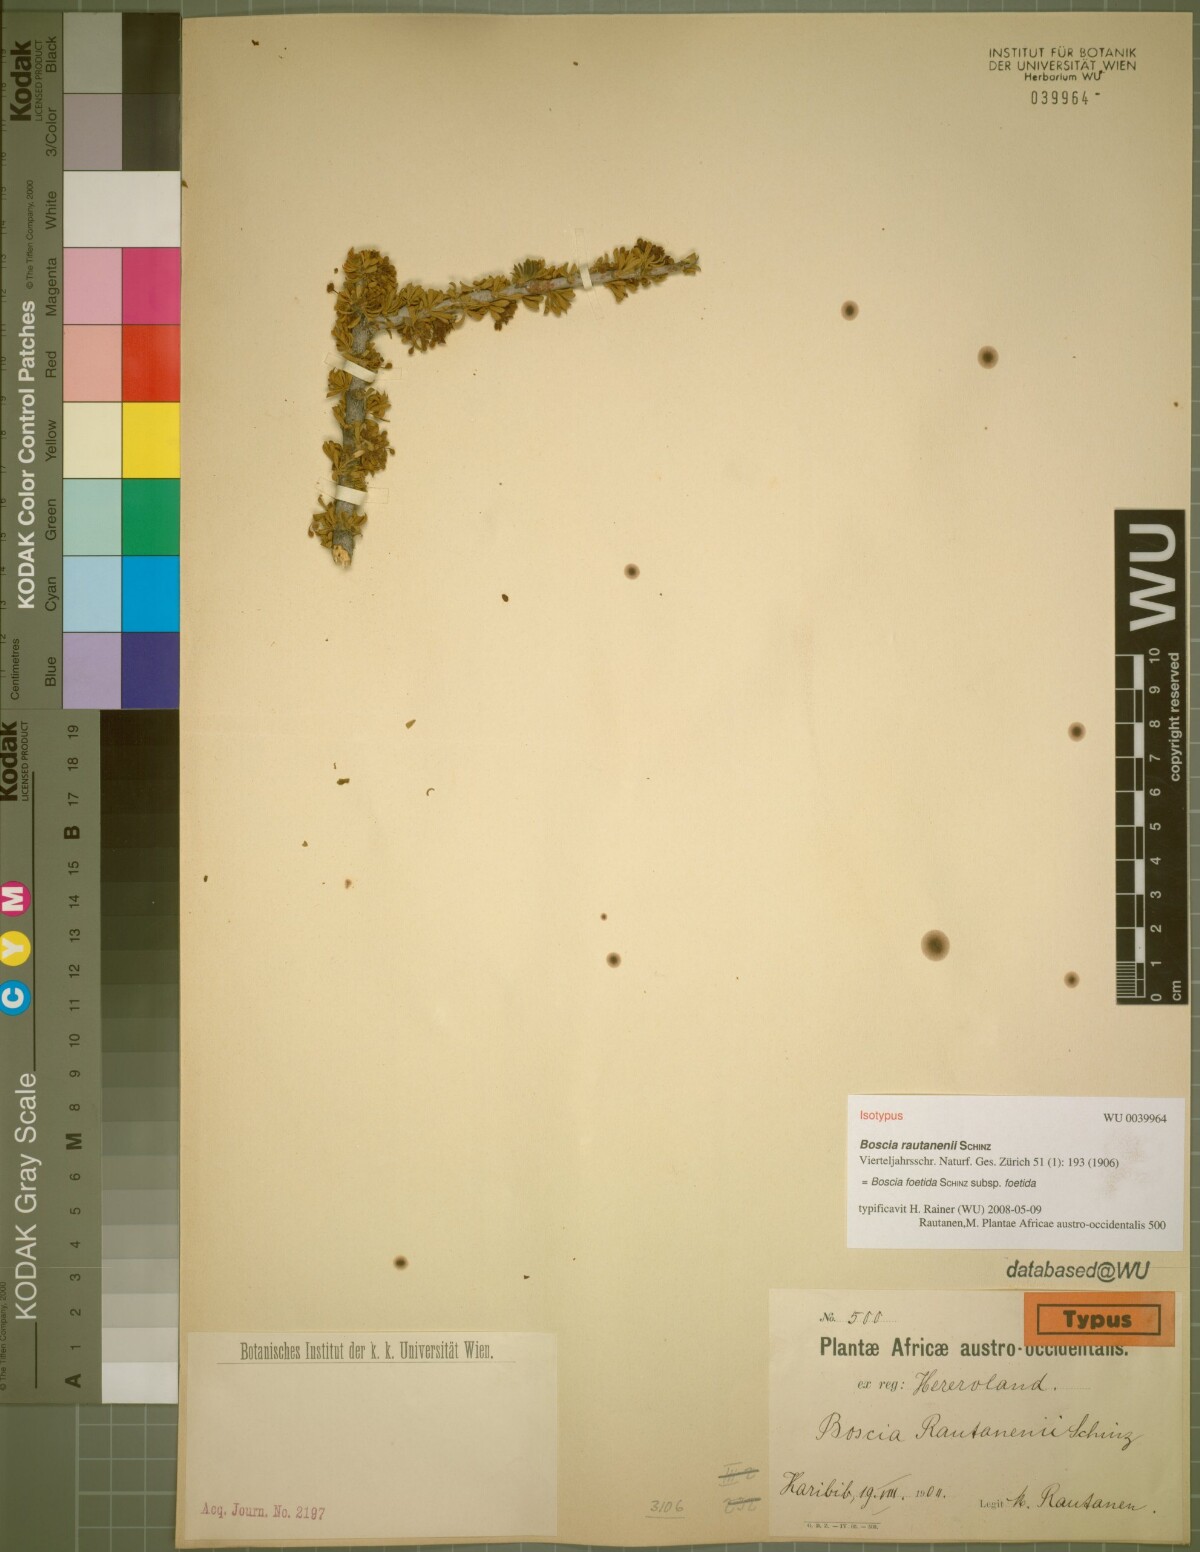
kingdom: Plantae
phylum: Tracheophyta
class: Magnoliopsida
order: Brassicales
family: Capparaceae
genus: Boscia
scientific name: Boscia foetida
